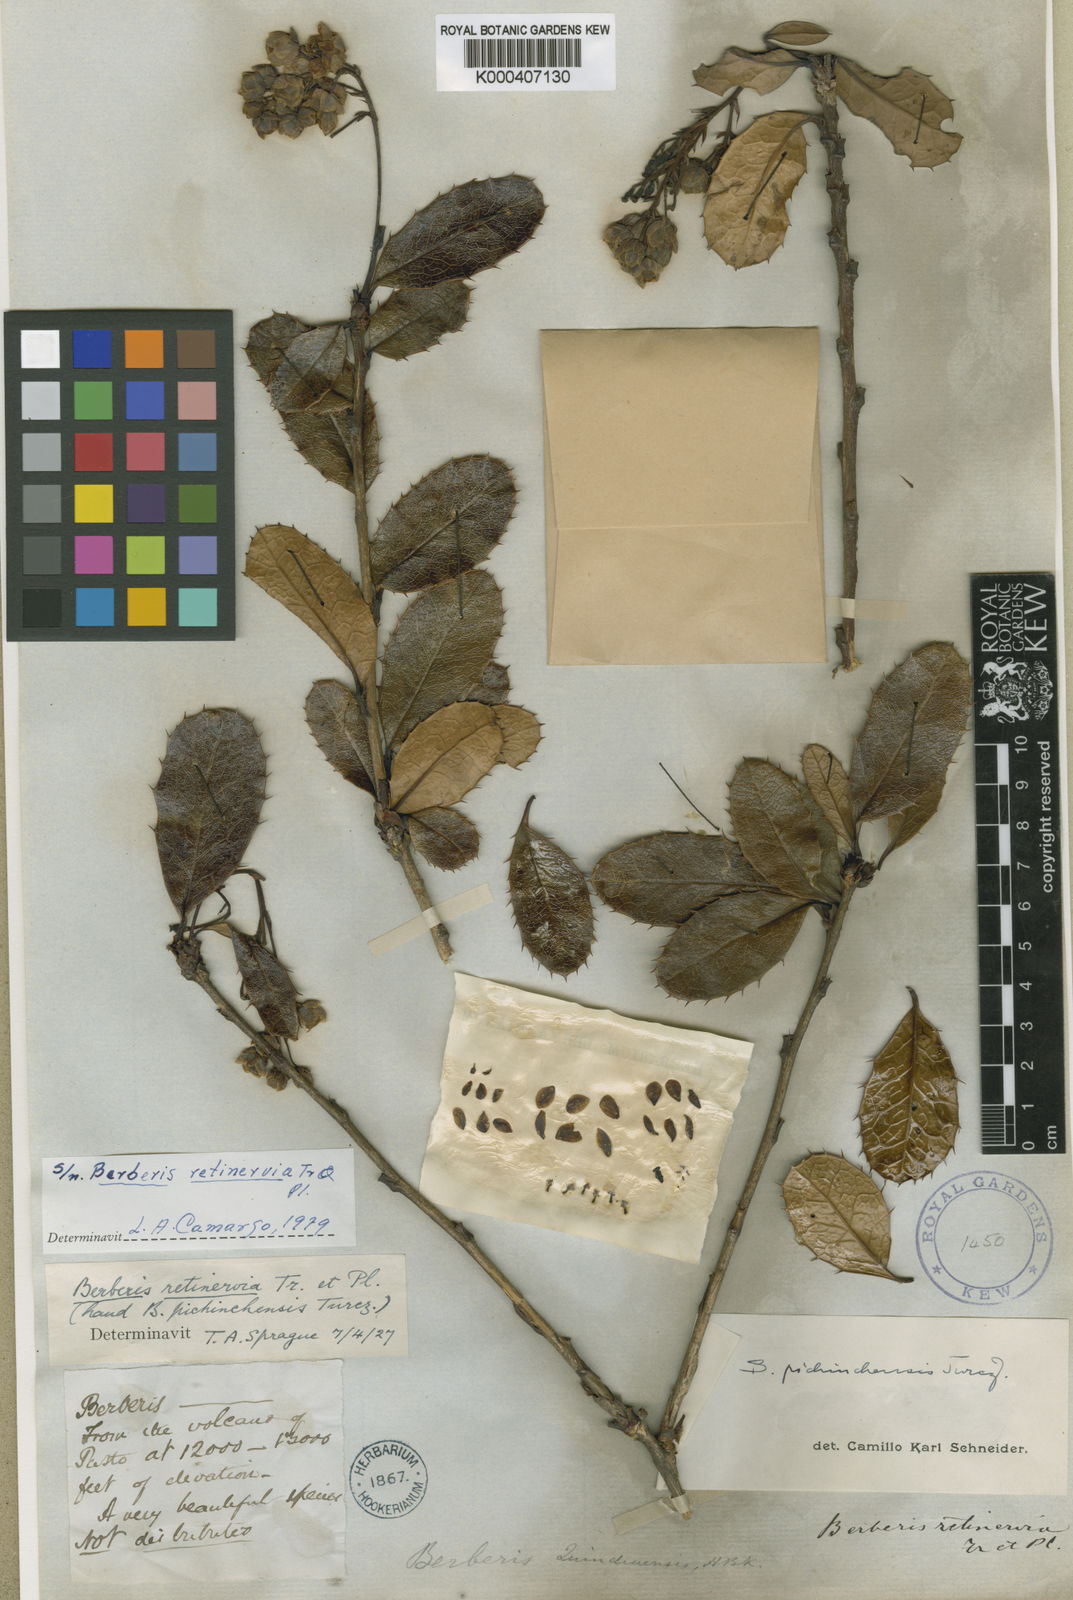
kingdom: Plantae
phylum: Tracheophyta
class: Magnoliopsida
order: Ranunculales
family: Berberidaceae
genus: Berberis
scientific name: Berberis
